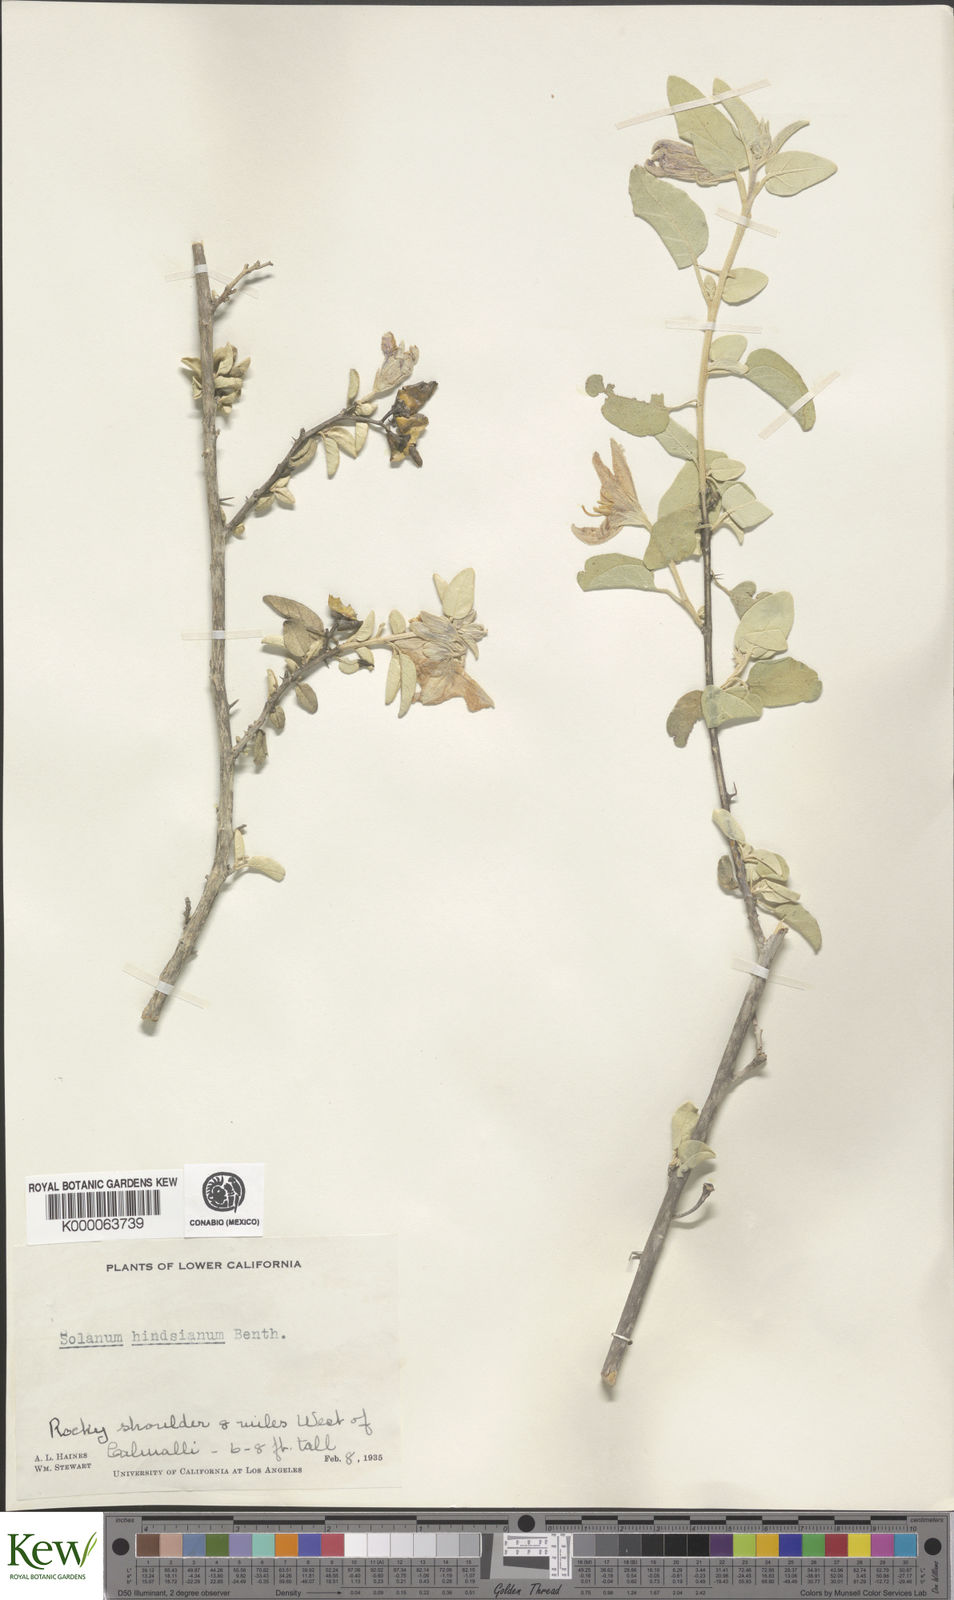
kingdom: Plantae
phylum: Tracheophyta
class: Magnoliopsida
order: Solanales
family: Solanaceae
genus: Solanum
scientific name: Solanum hindsianum
